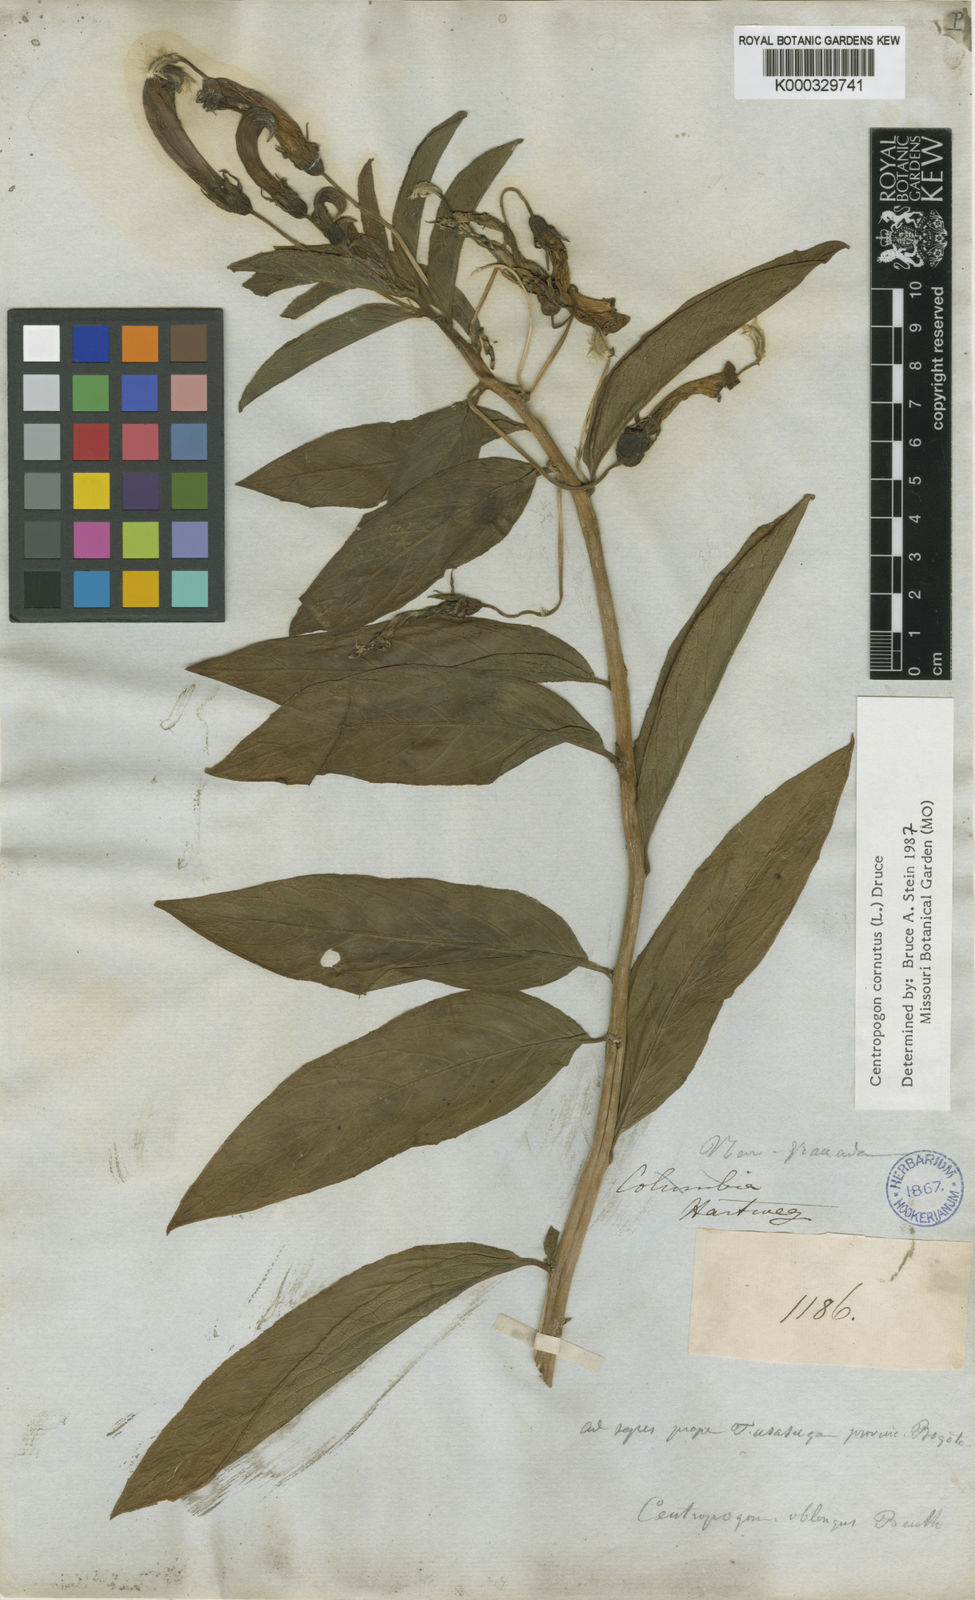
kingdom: Plantae
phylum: Tracheophyta
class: Magnoliopsida
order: Asterales
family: Campanulaceae
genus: Centropogon
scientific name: Centropogon cornutus
